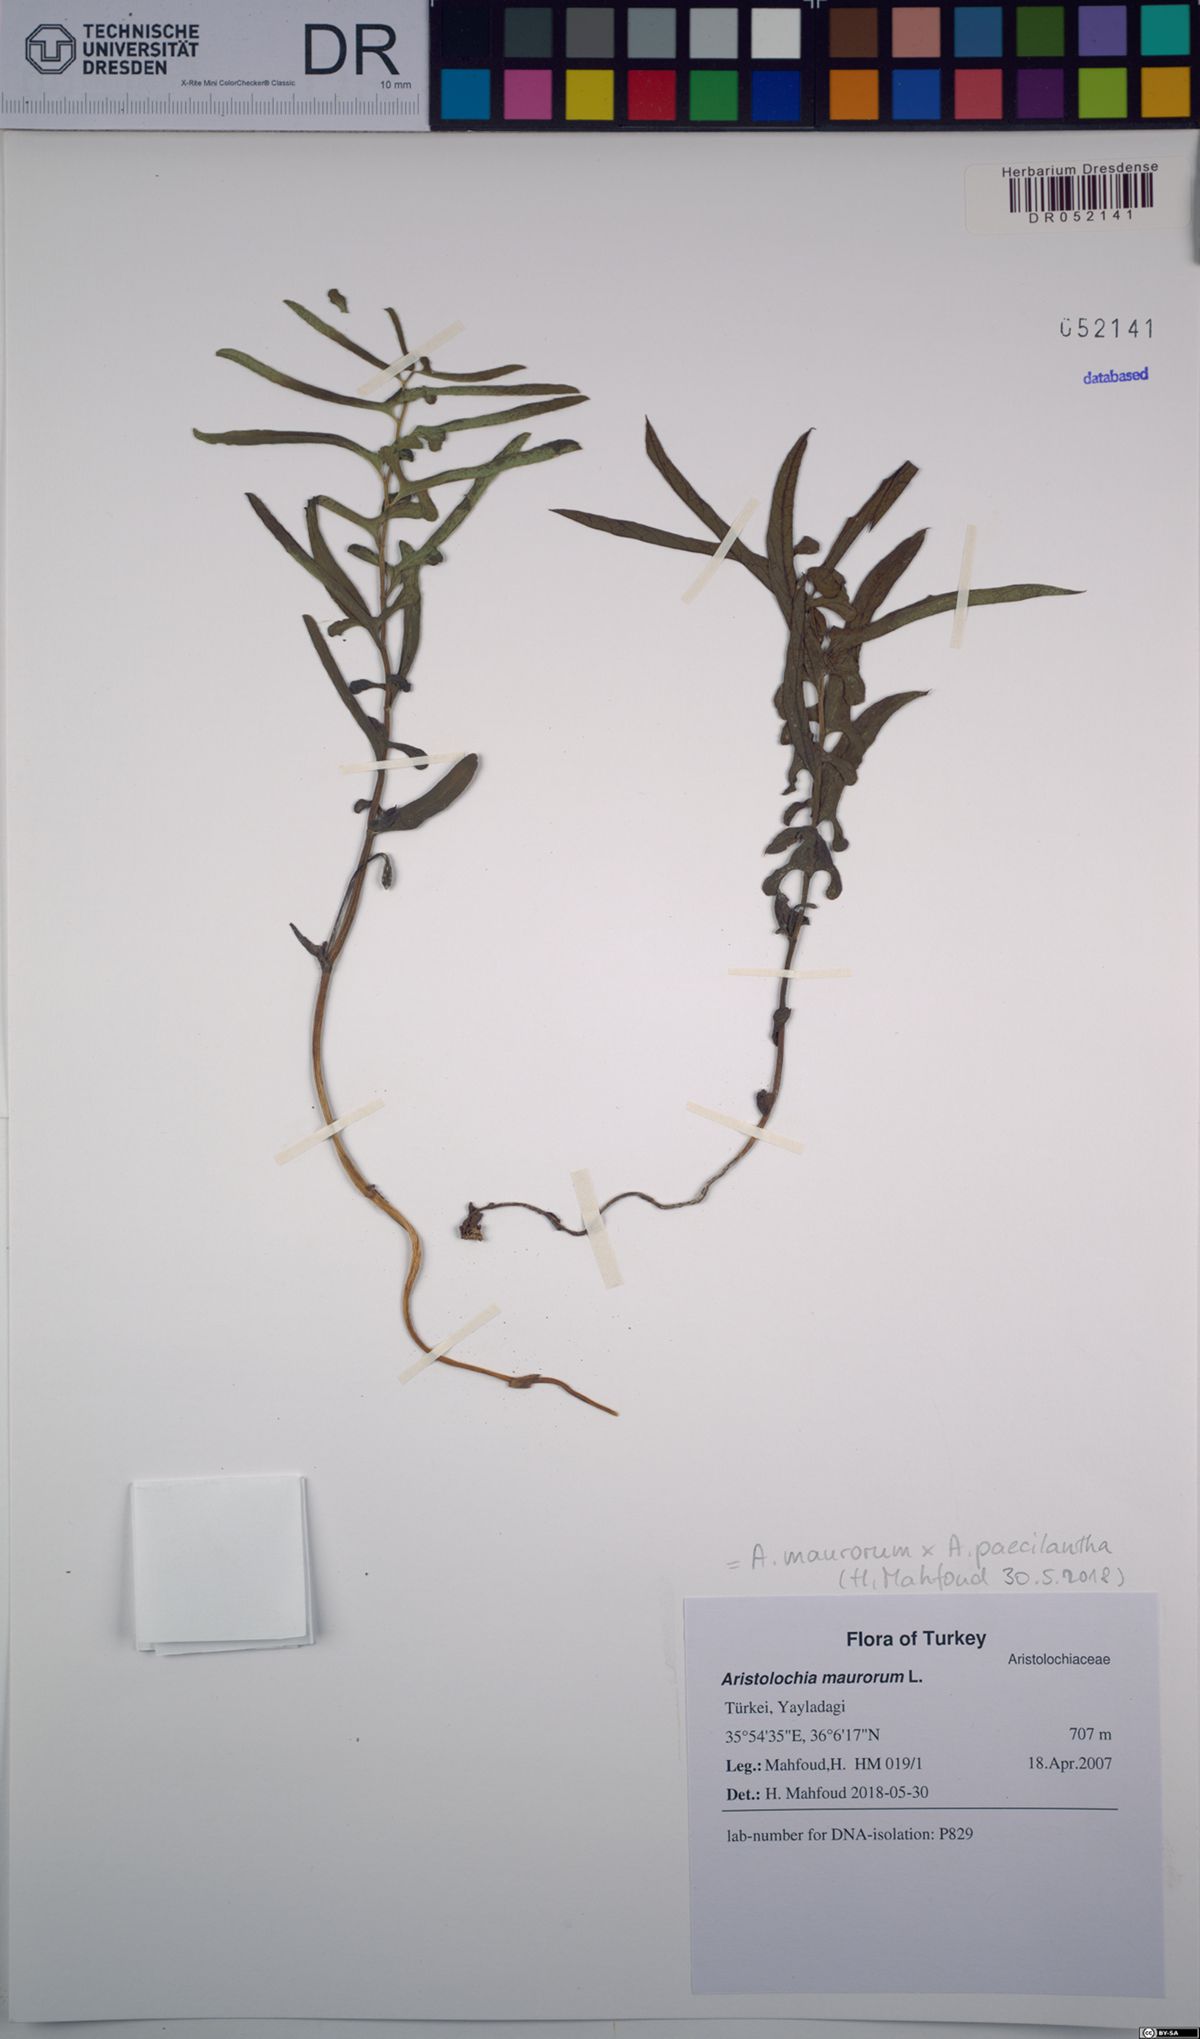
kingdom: Plantae
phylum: Tracheophyta
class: Magnoliopsida
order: Piperales
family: Aristolochiaceae
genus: Aristolochia
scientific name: Aristolochia maurorum
